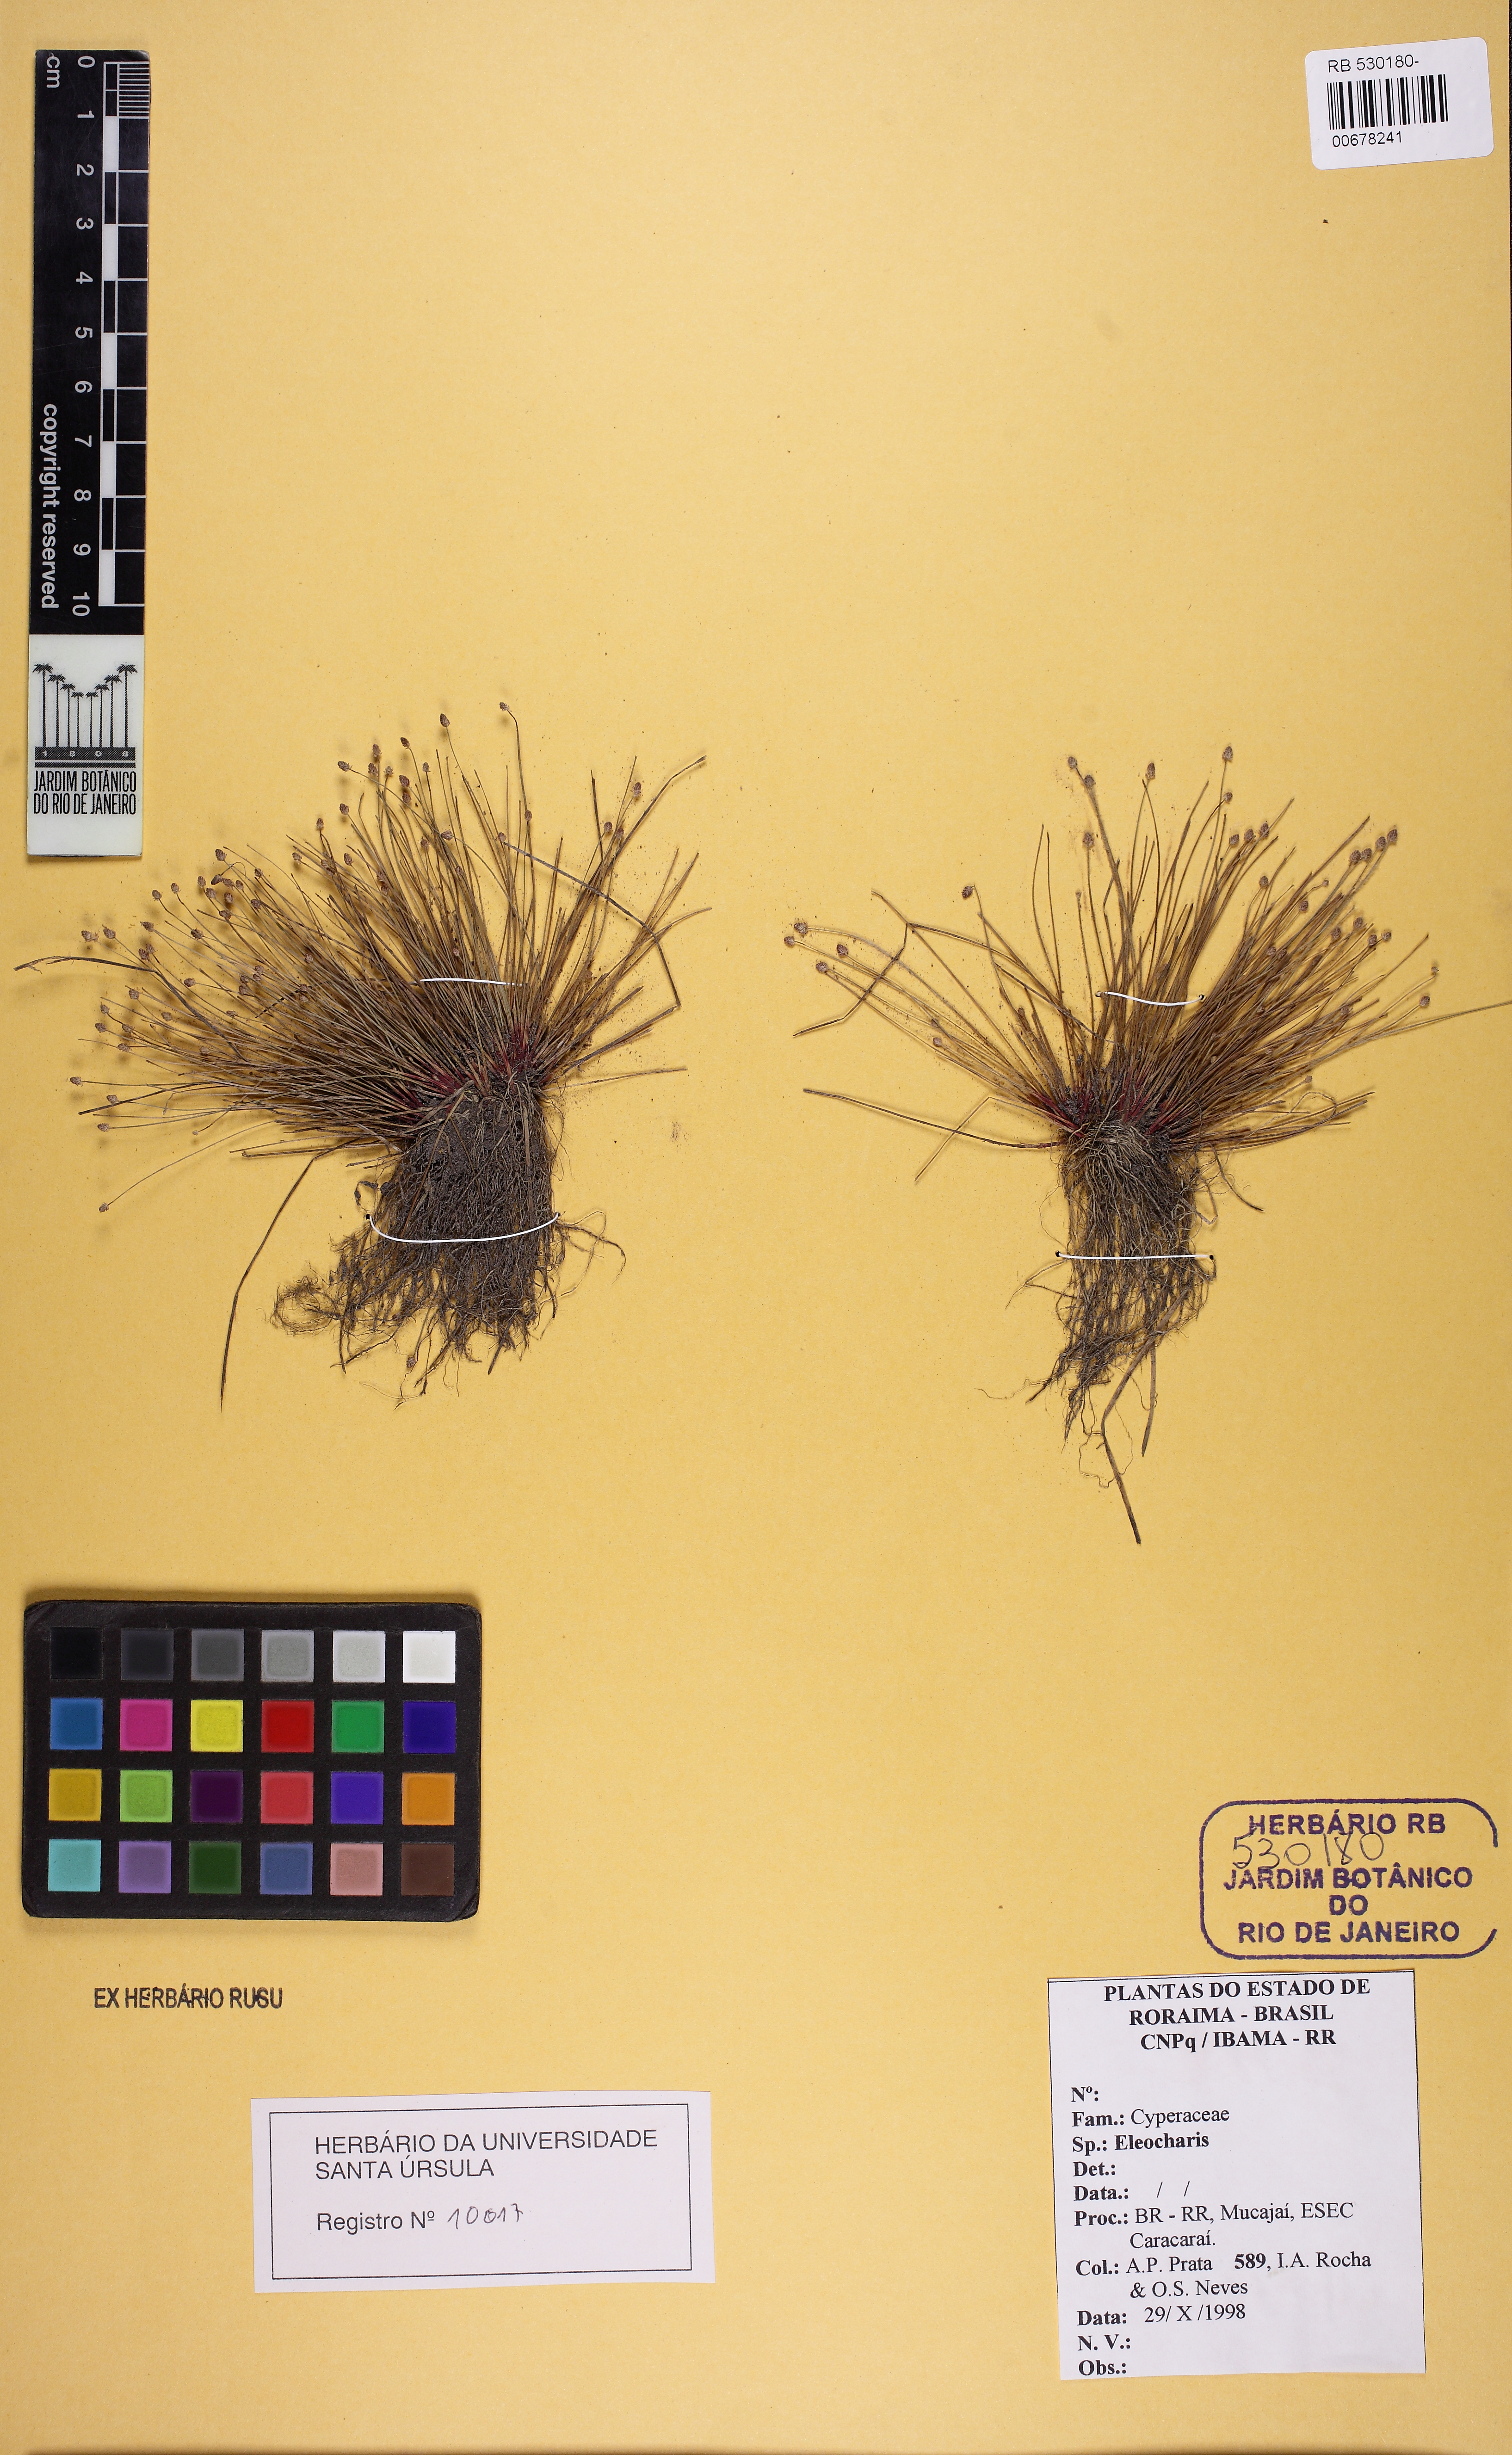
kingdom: Plantae
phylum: Tracheophyta
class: Liliopsida
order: Poales
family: Cyperaceae
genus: Eleocharis
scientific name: Eleocharis nigrescens
